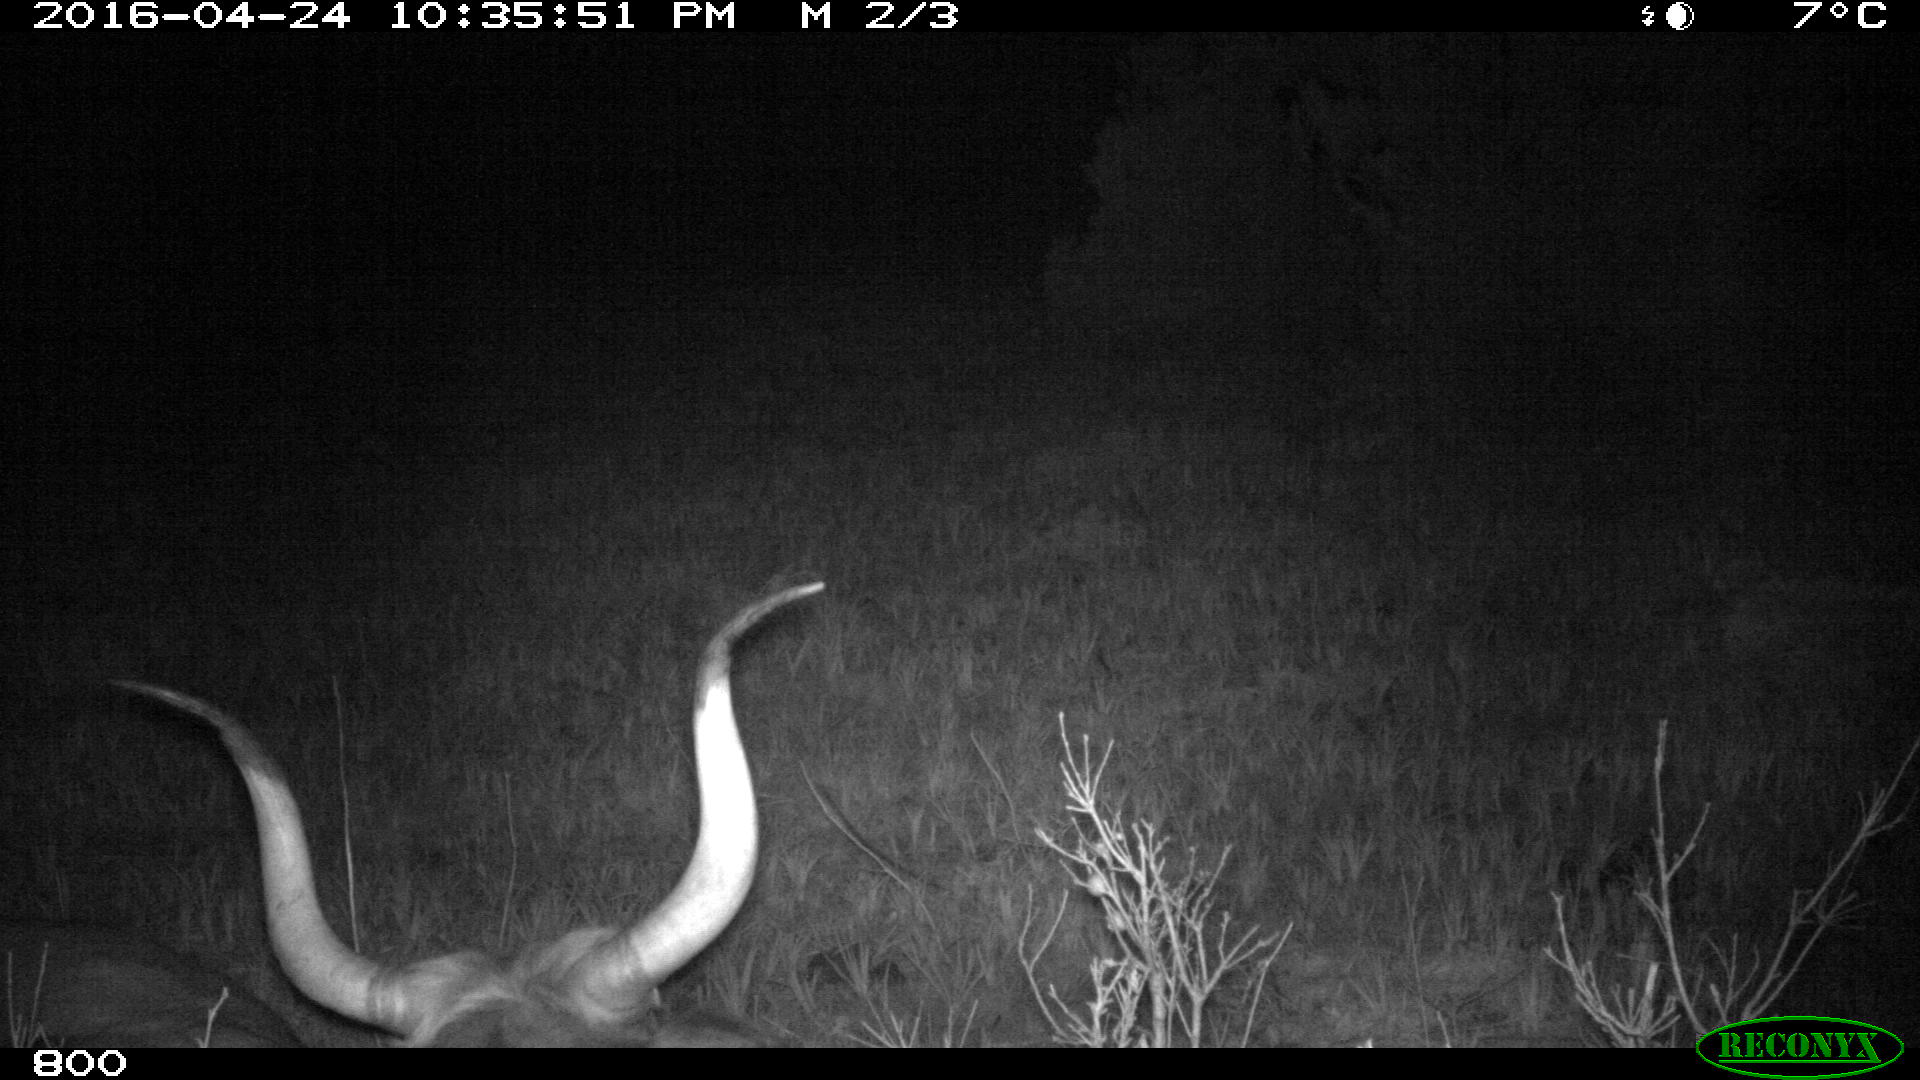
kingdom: Animalia
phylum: Chordata
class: Mammalia
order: Artiodactyla
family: Bovidae
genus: Bos
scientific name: Bos taurus
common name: Domesticated cattle
